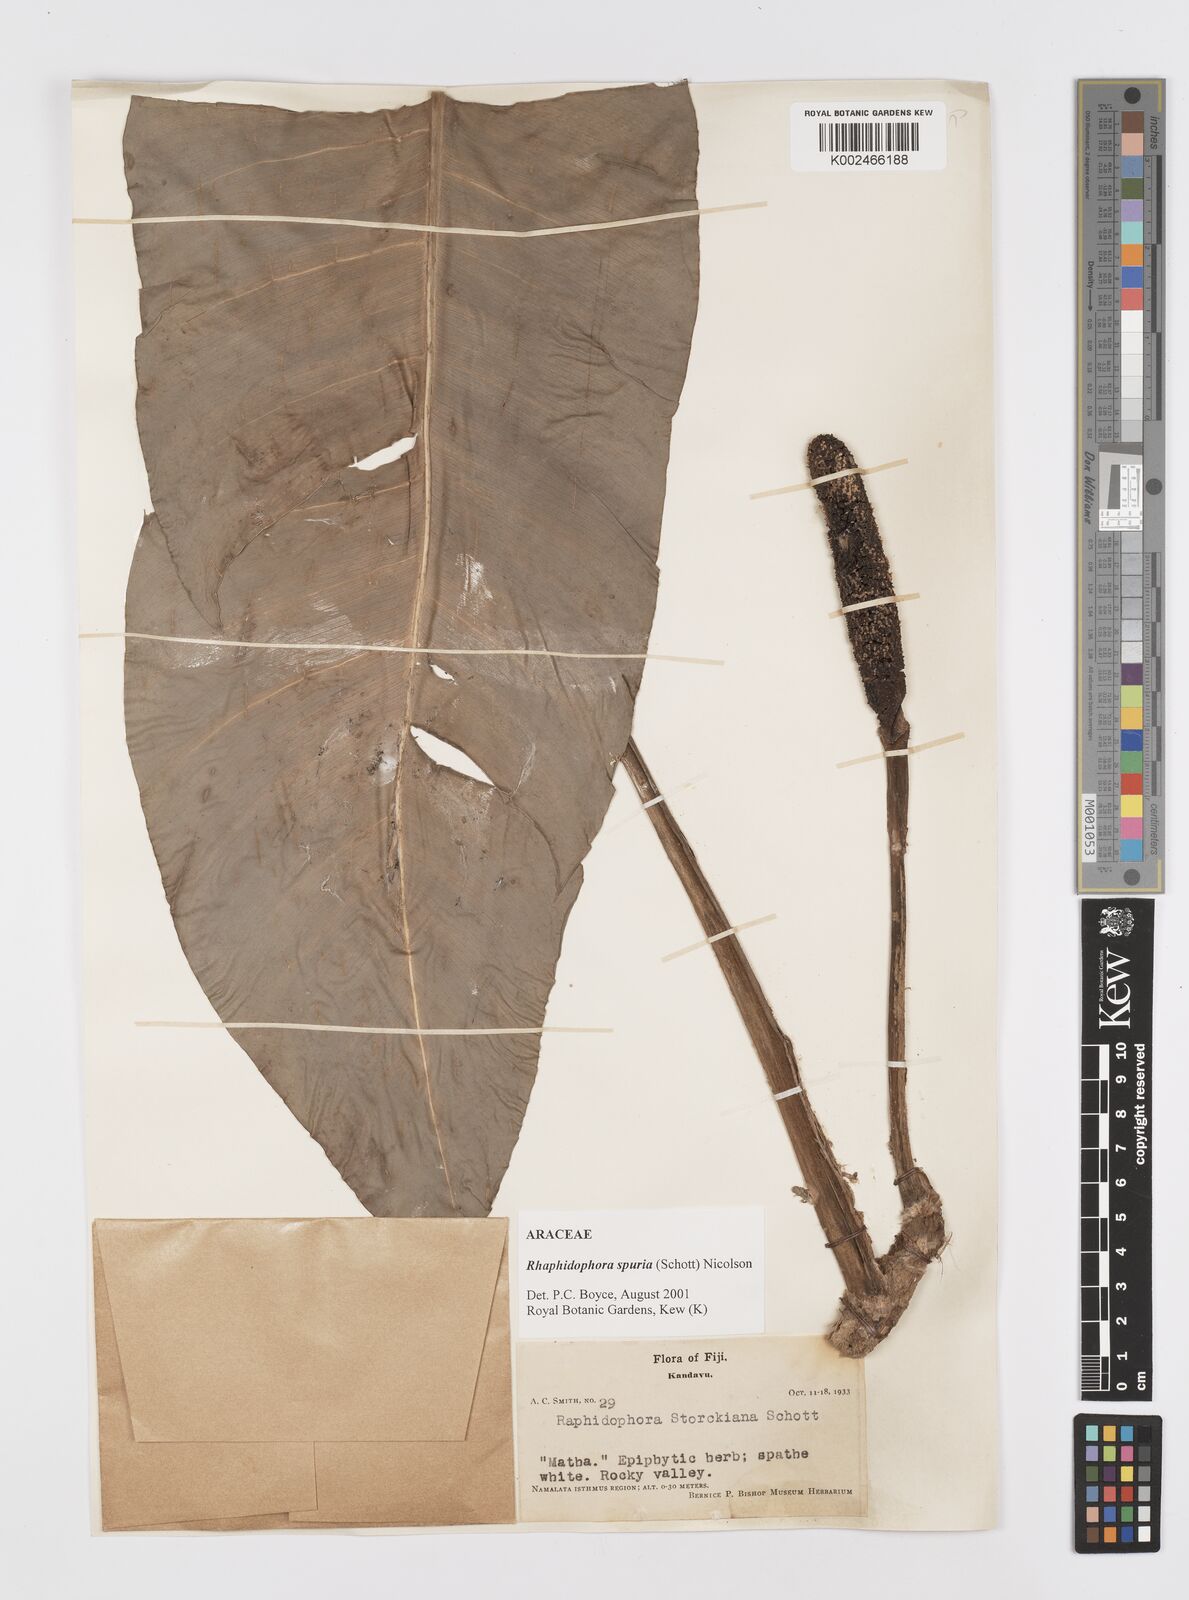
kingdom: Plantae
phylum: Tracheophyta
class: Liliopsida
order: Alismatales
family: Araceae
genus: Rhaphidophora
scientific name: Rhaphidophora spuria
